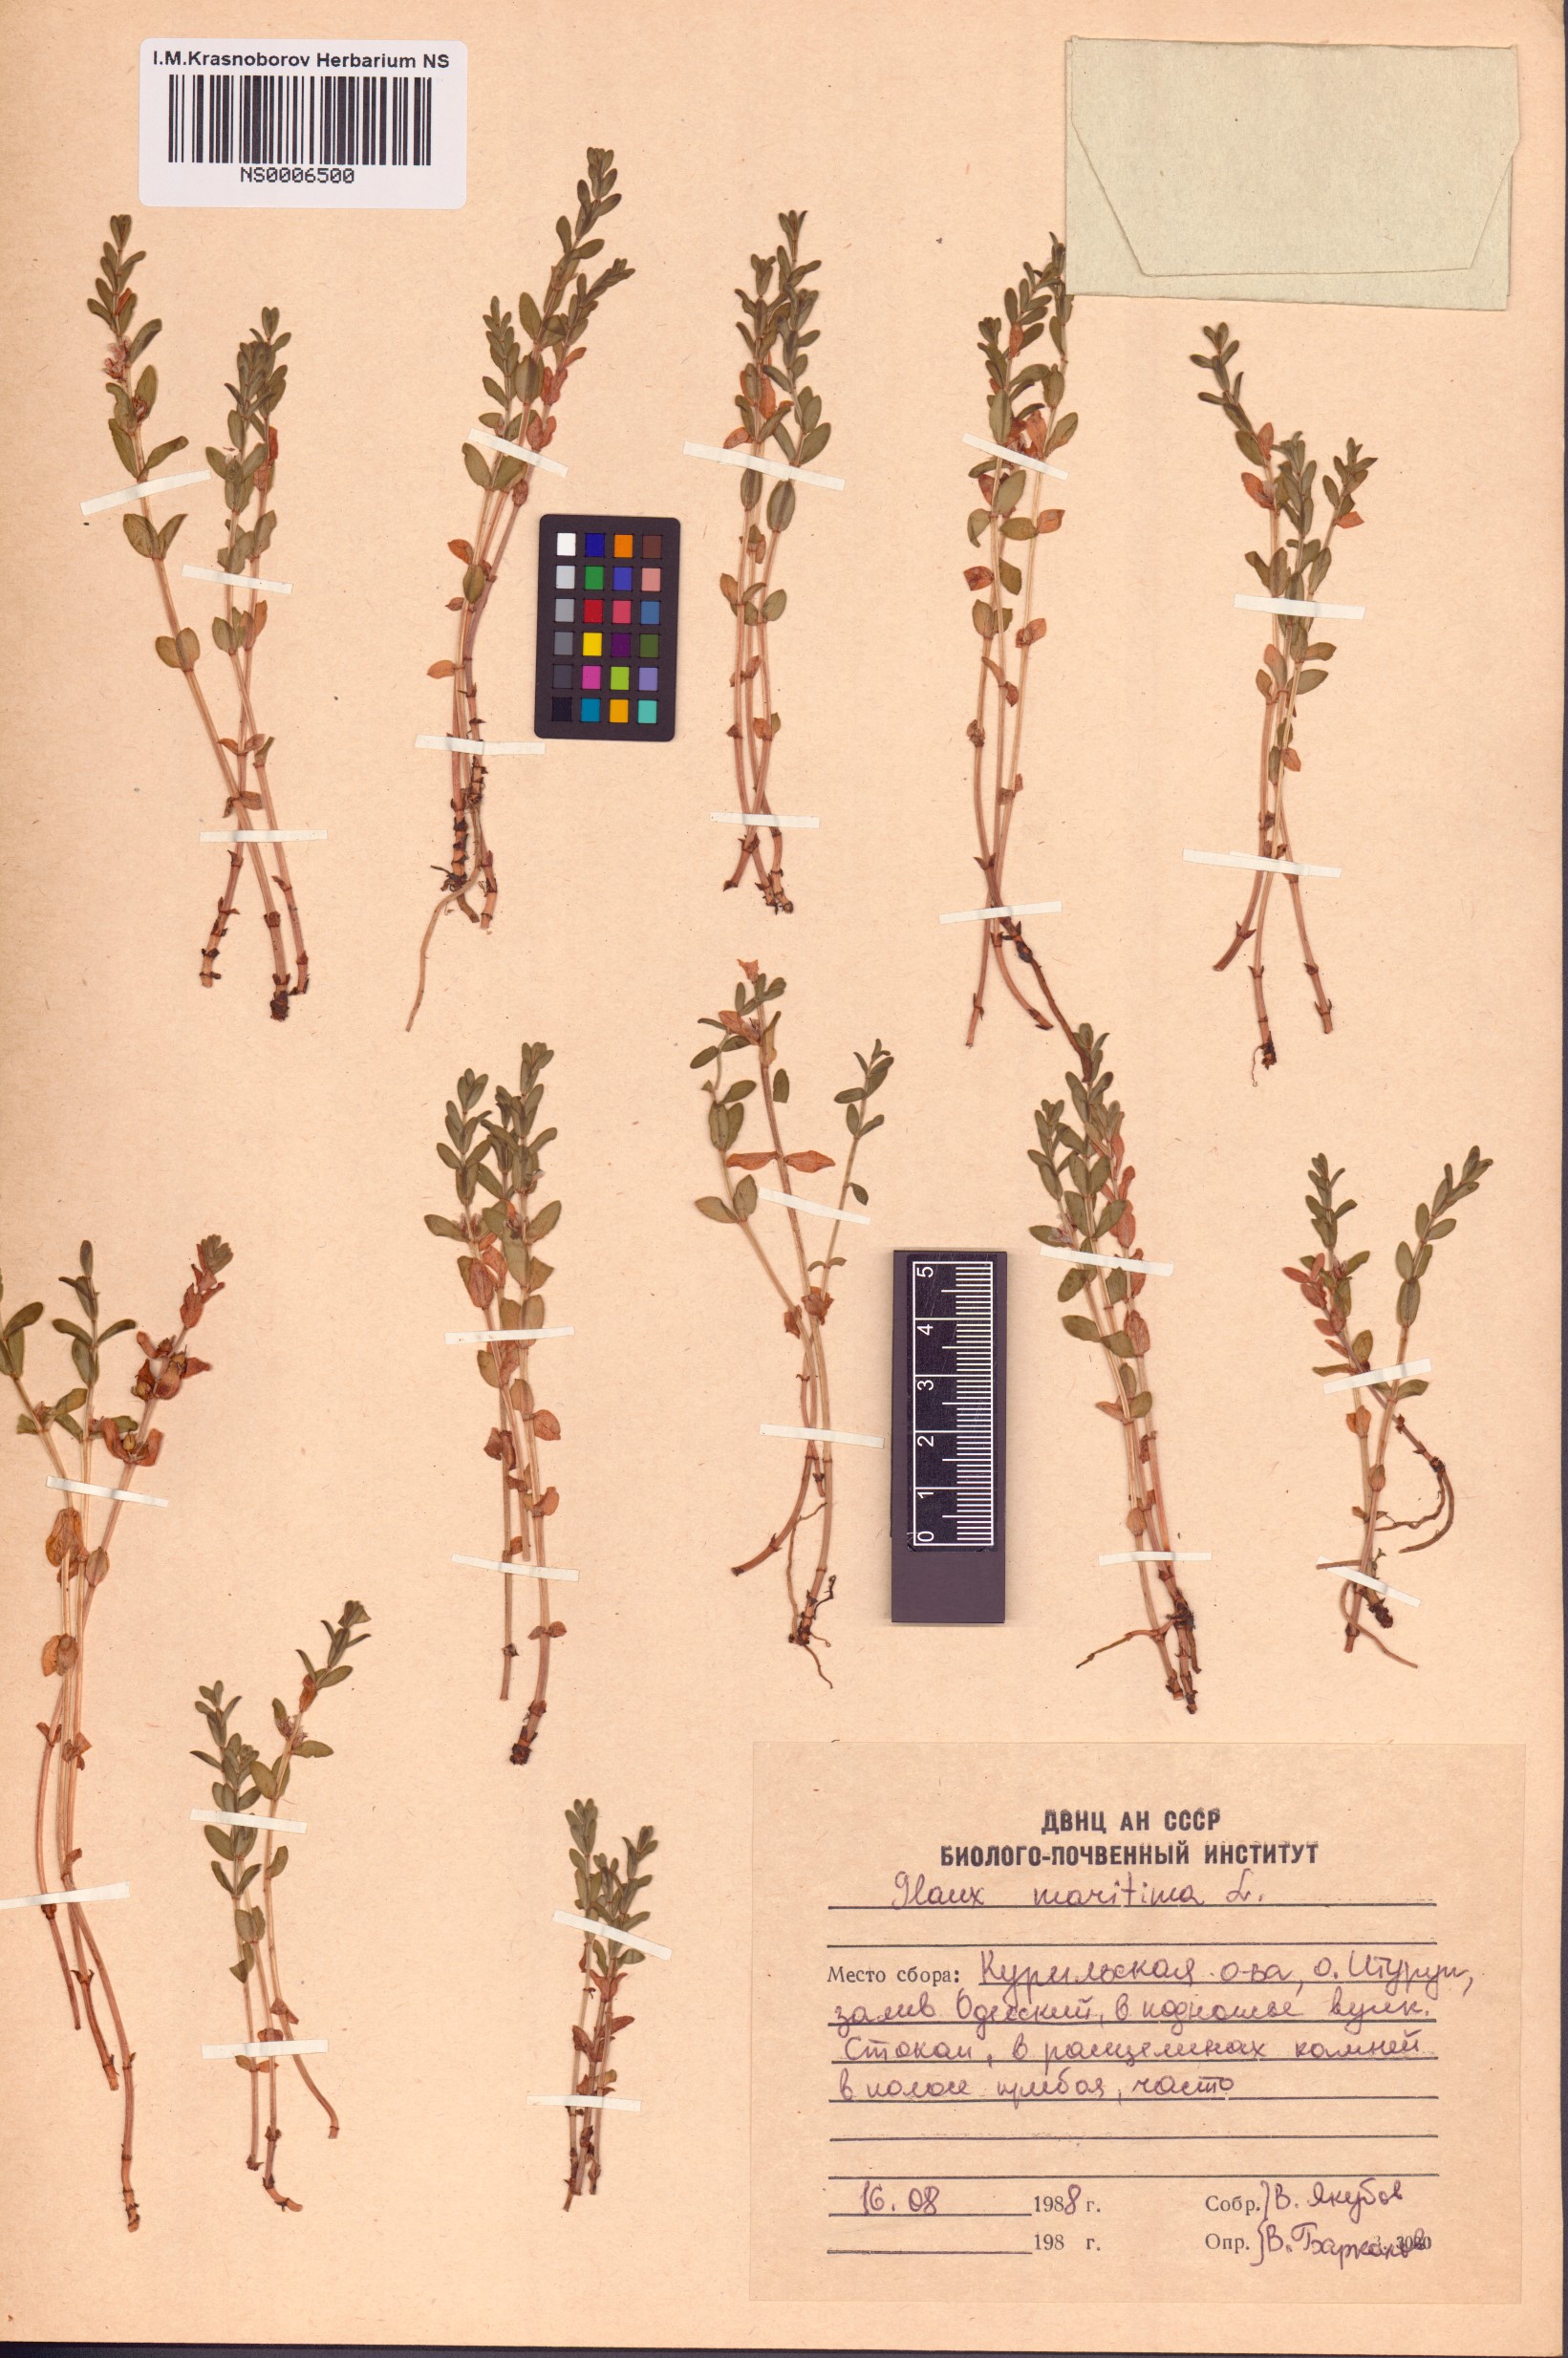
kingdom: Plantae
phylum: Tracheophyta
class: Magnoliopsida
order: Ericales
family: Primulaceae
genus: Lysimachia
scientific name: Lysimachia maritima
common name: Sea milkwort
